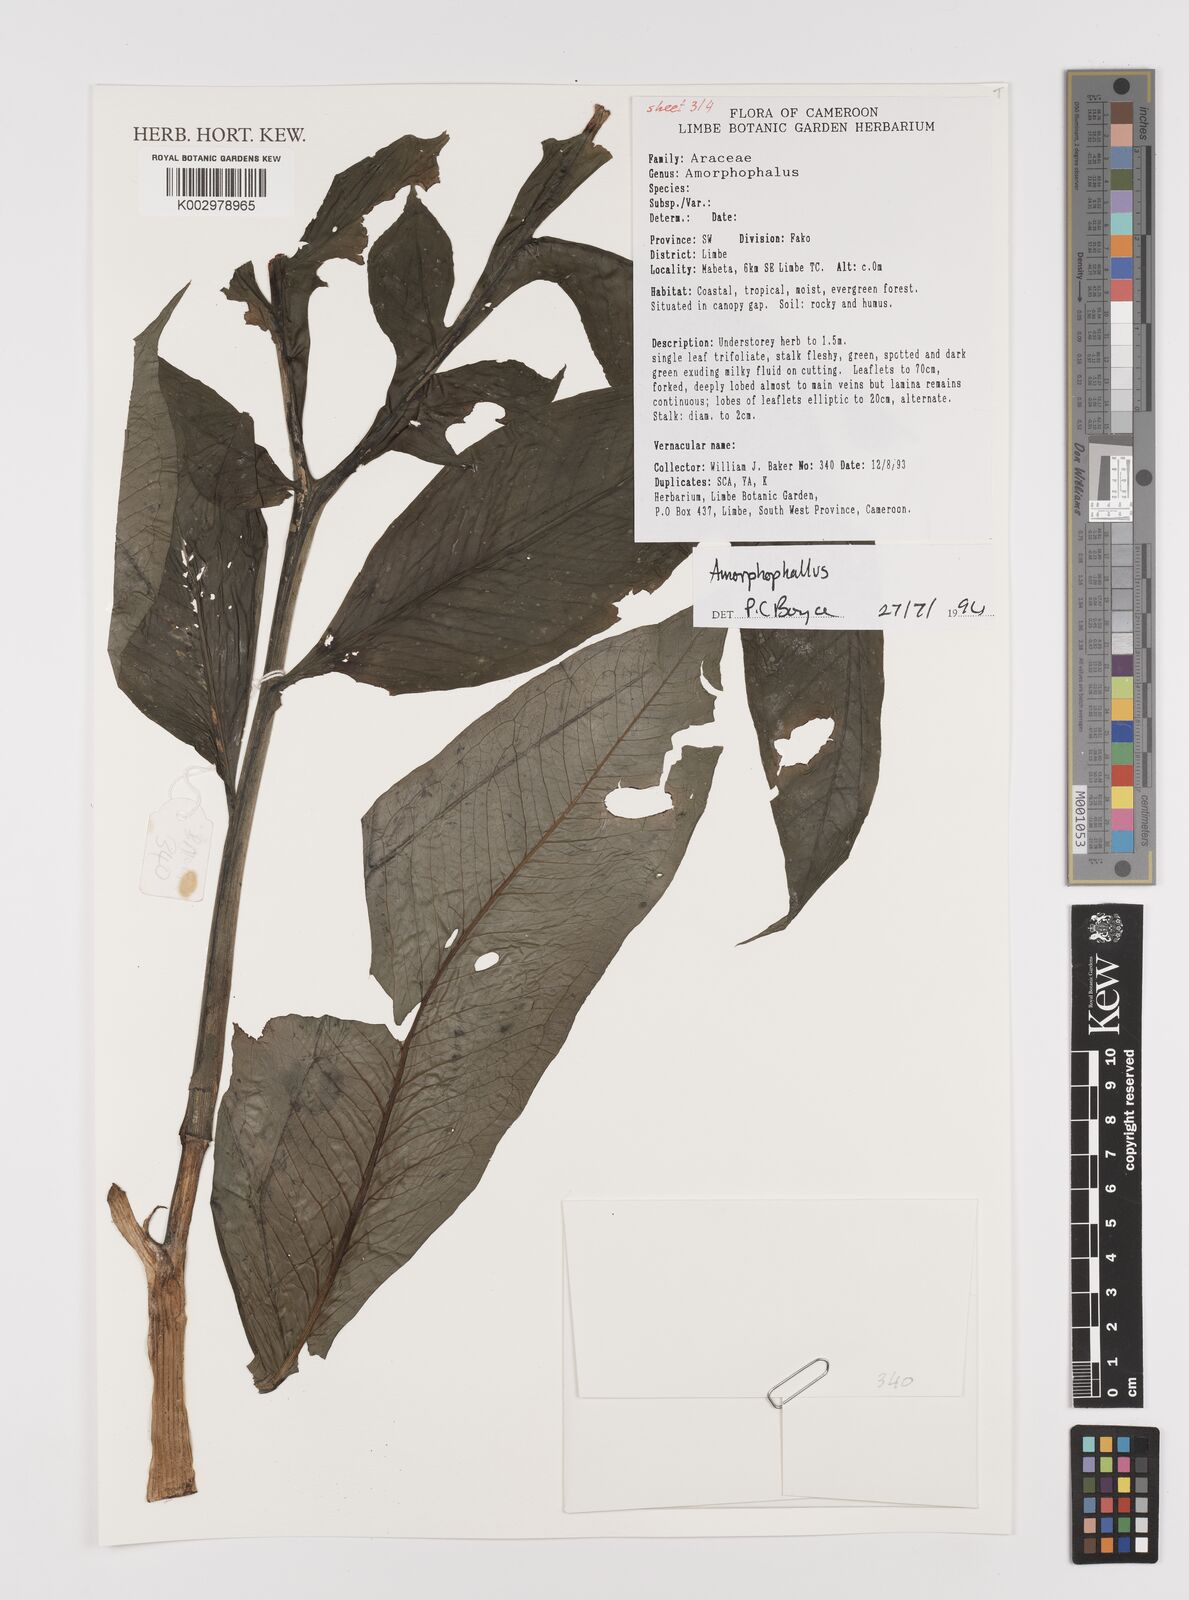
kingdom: Plantae
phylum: Tracheophyta
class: Liliopsida
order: Alismatales
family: Araceae
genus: Amorphophallus
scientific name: Amorphophallus
